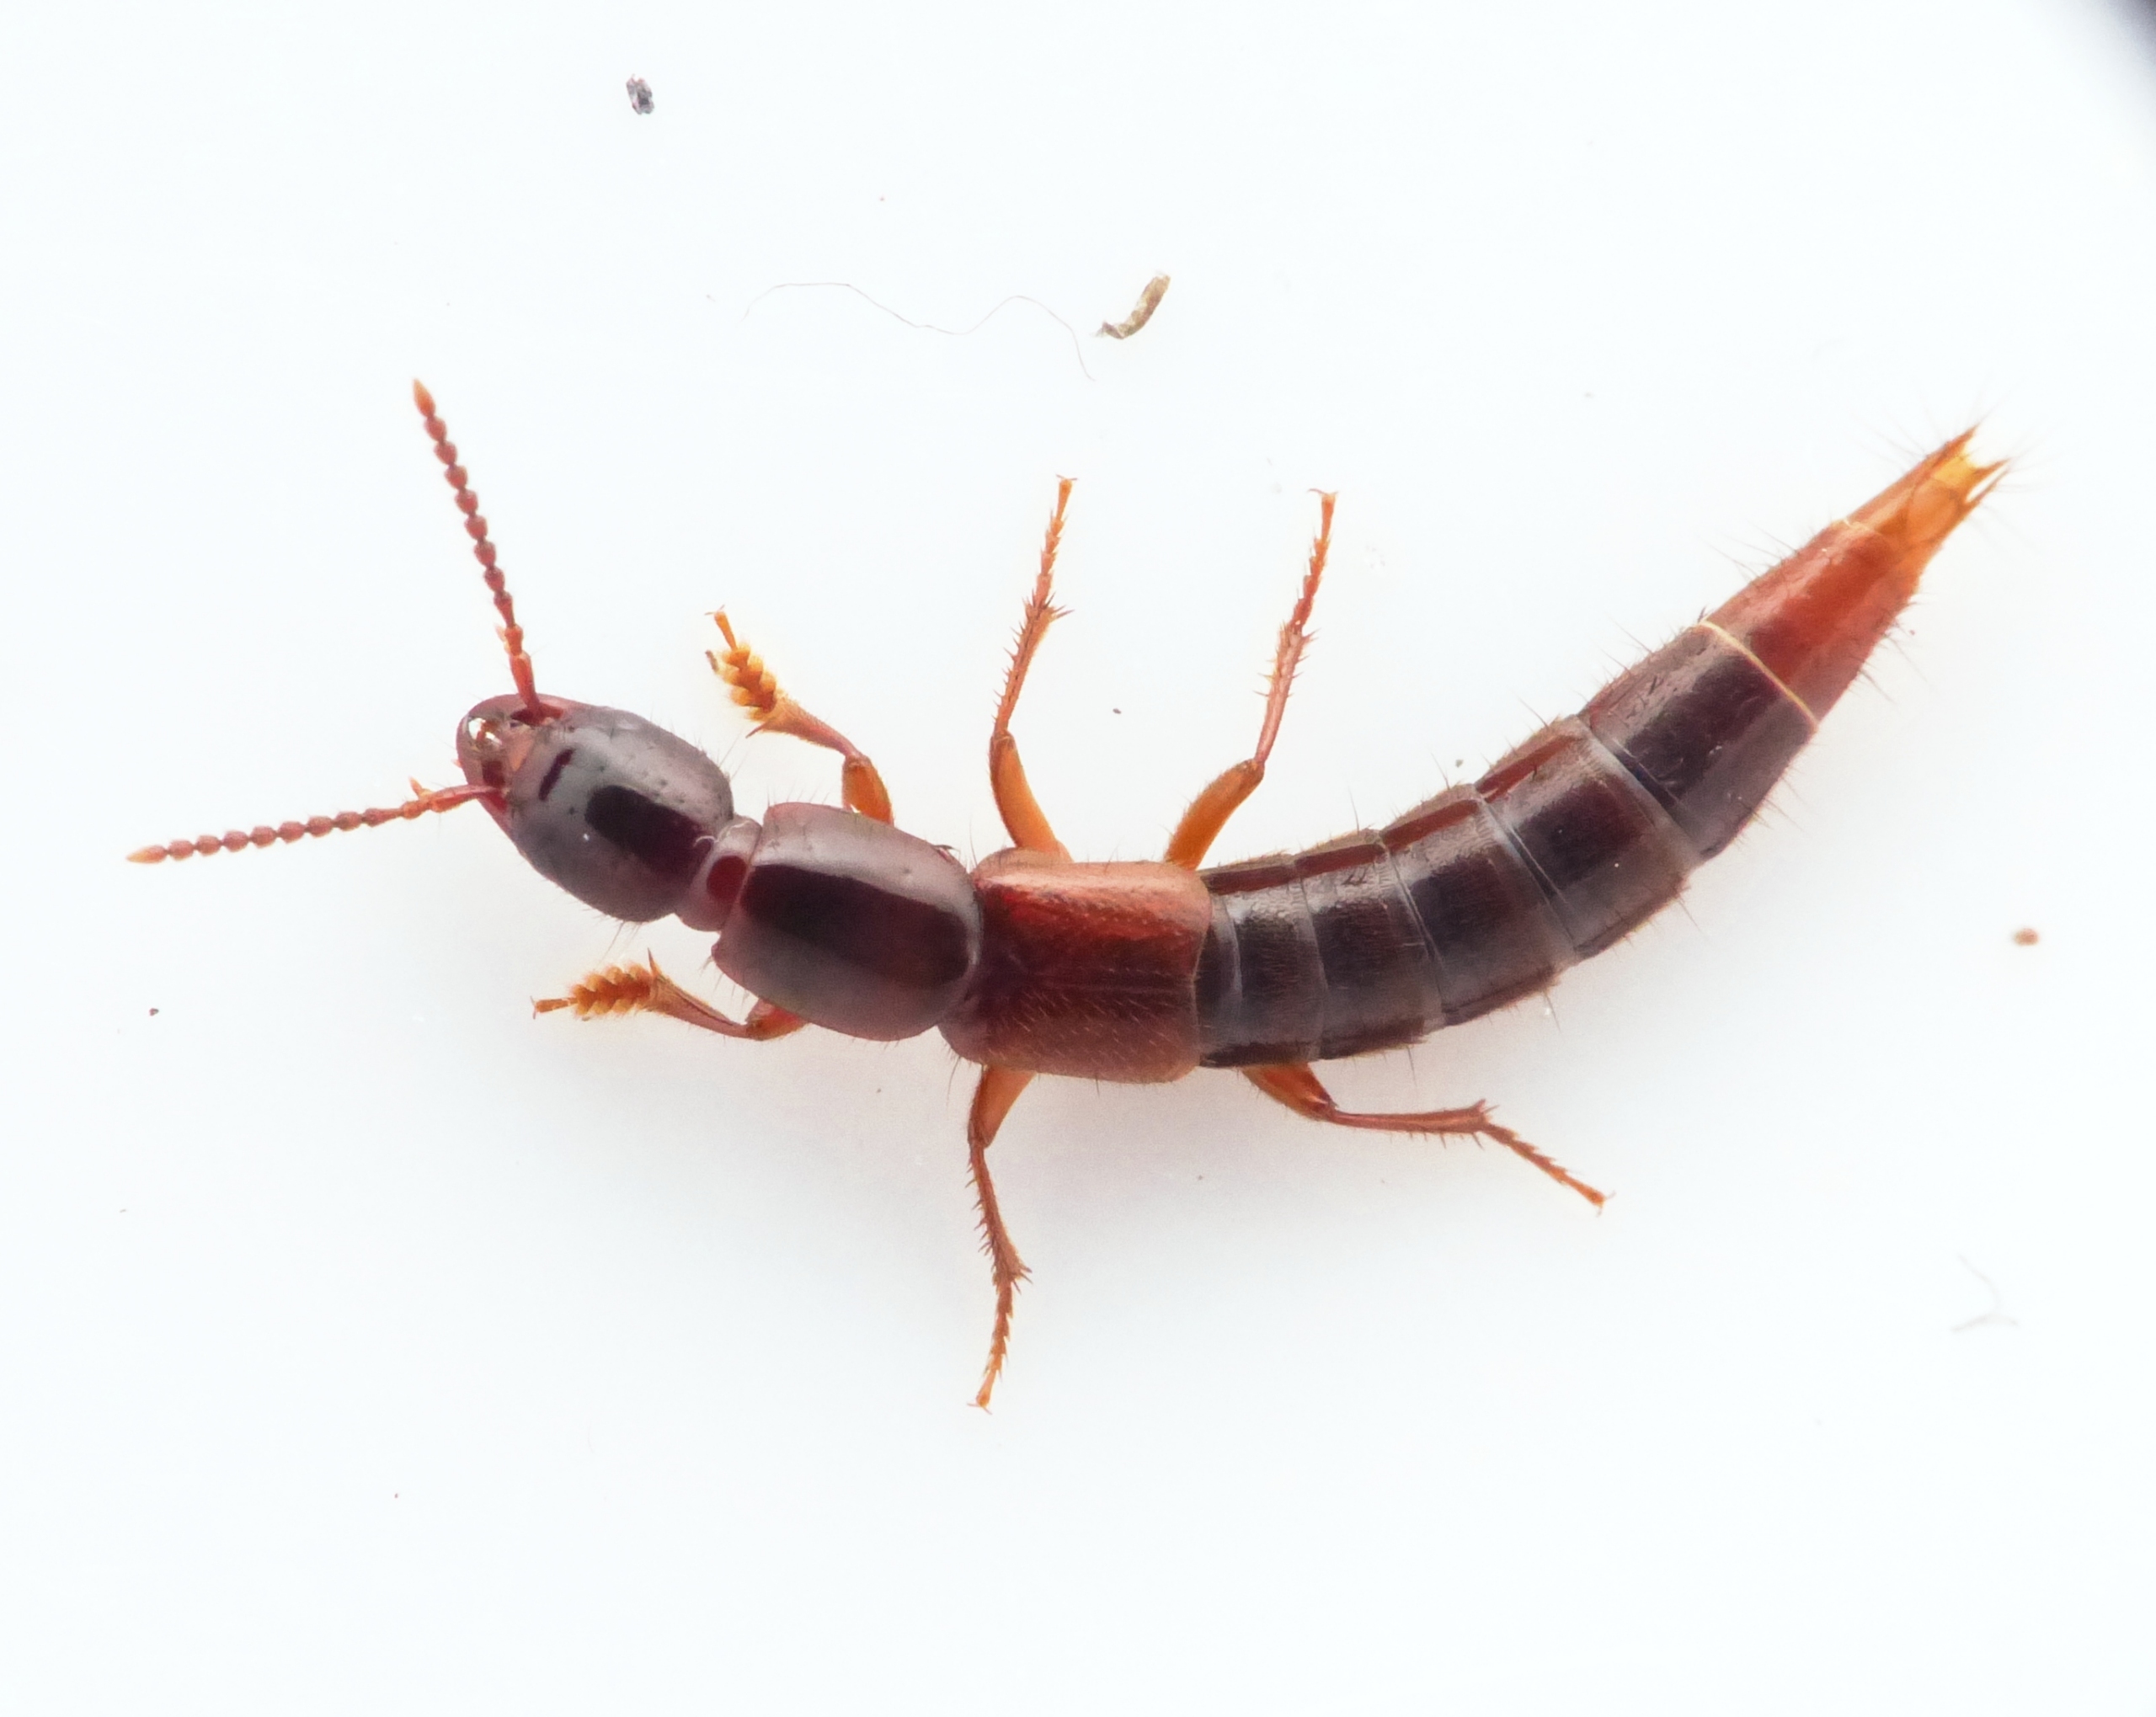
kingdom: Animalia
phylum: Arthropoda
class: Insecta
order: Coleoptera
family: Staphylinidae
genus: Othius
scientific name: Othius punctulatus
